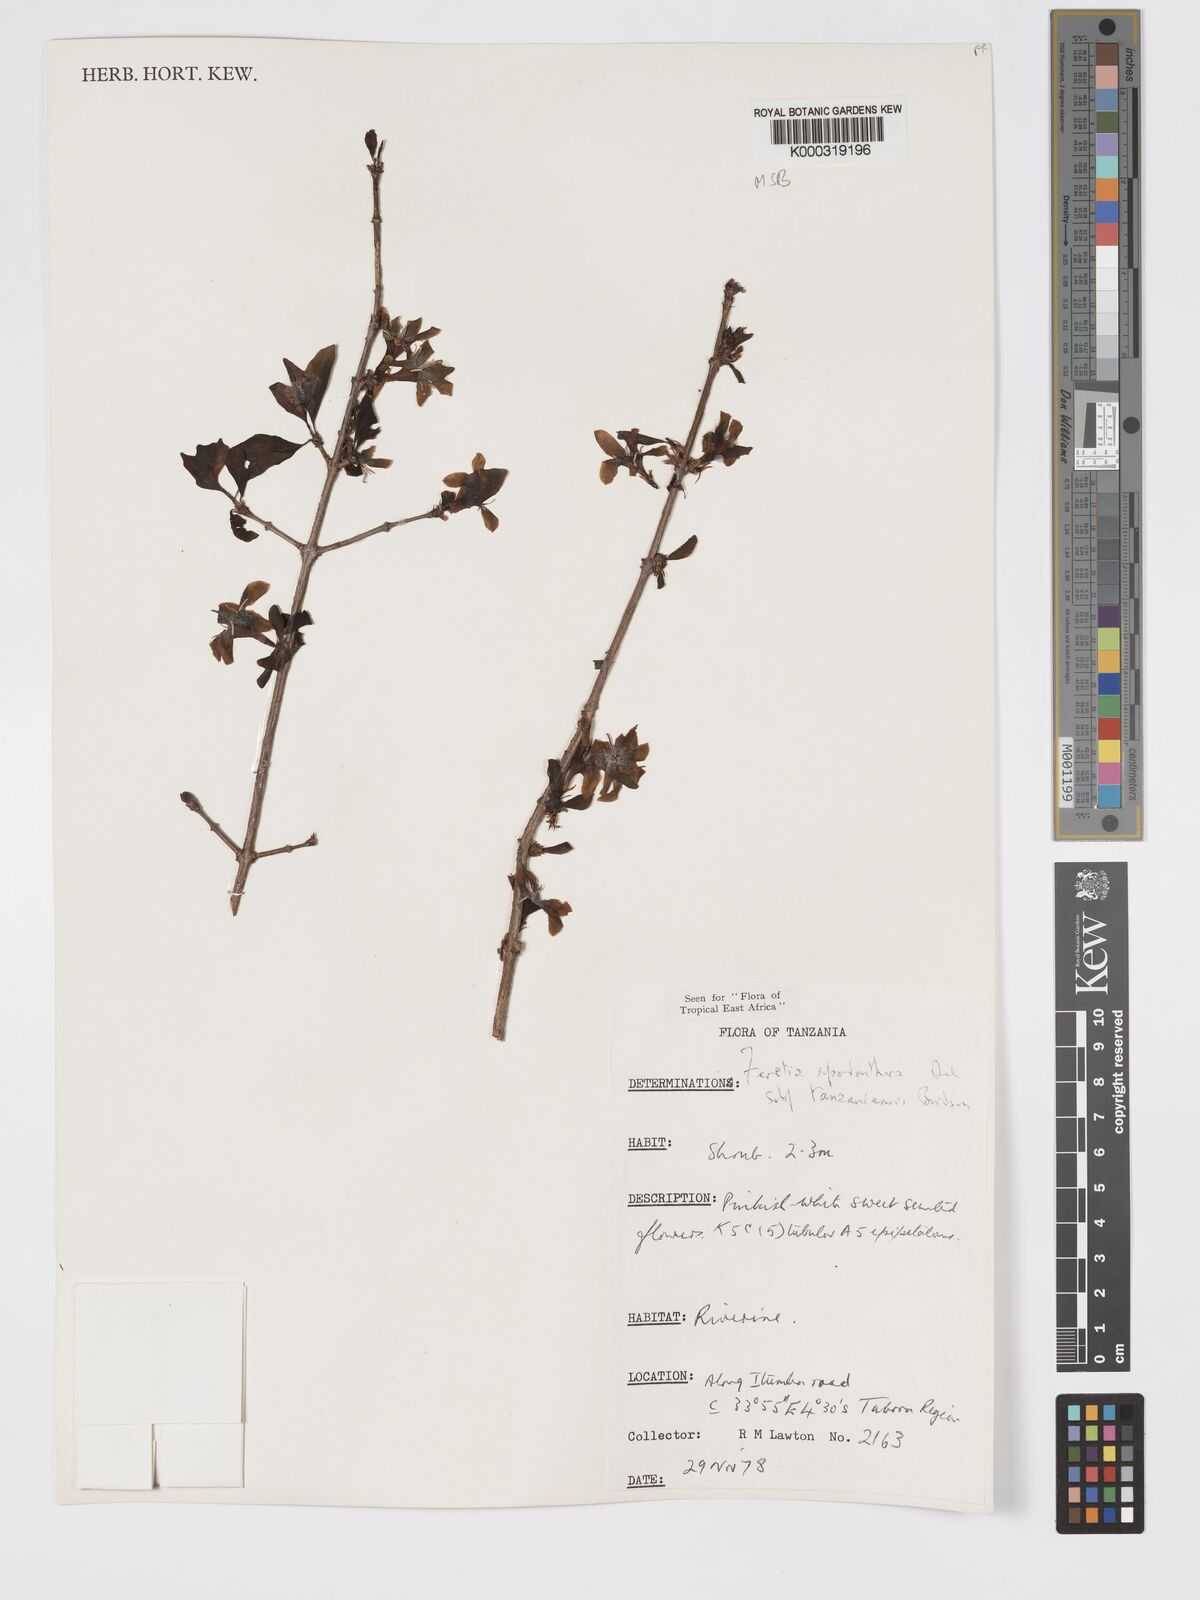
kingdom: Plantae
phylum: Tracheophyta
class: Magnoliopsida
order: Gentianales
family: Rubiaceae
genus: Feretia
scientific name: Feretia apodanthera
